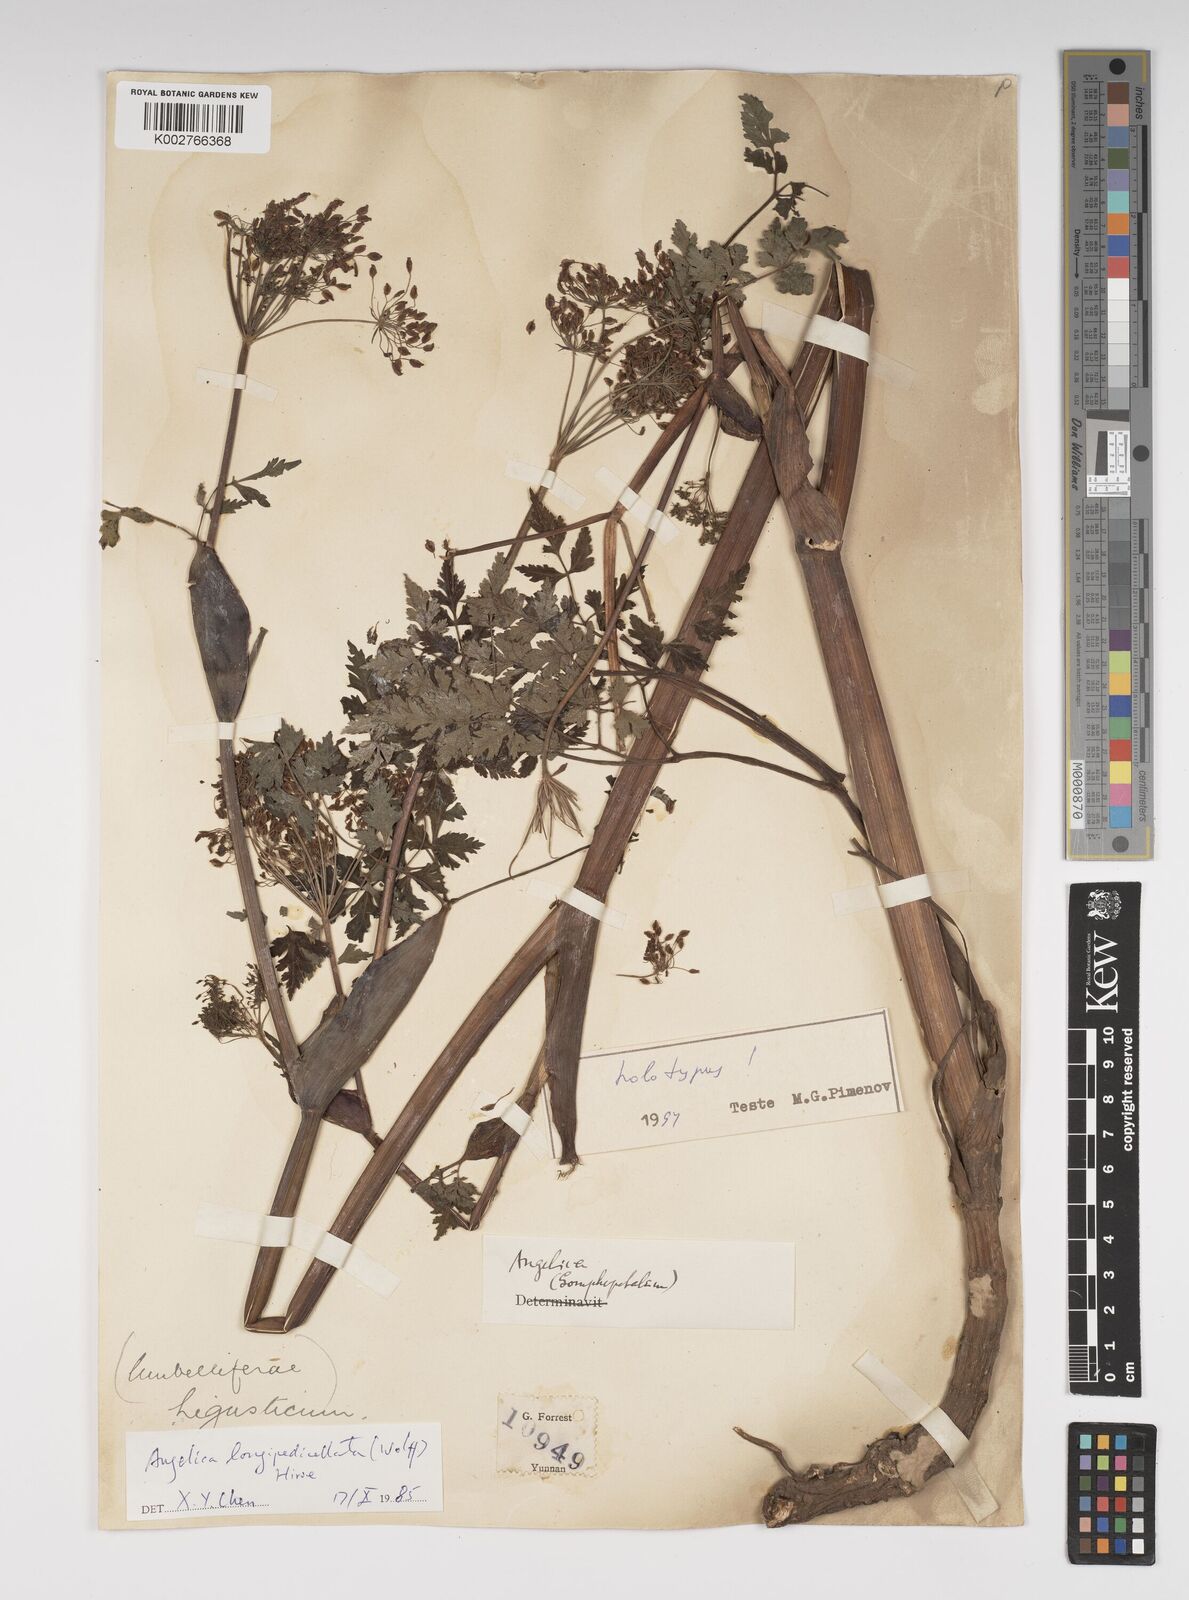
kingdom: Plantae
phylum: Tracheophyta
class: Magnoliopsida
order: Apiales
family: Apiaceae
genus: Ostericum
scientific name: Ostericum longipedicellatum
